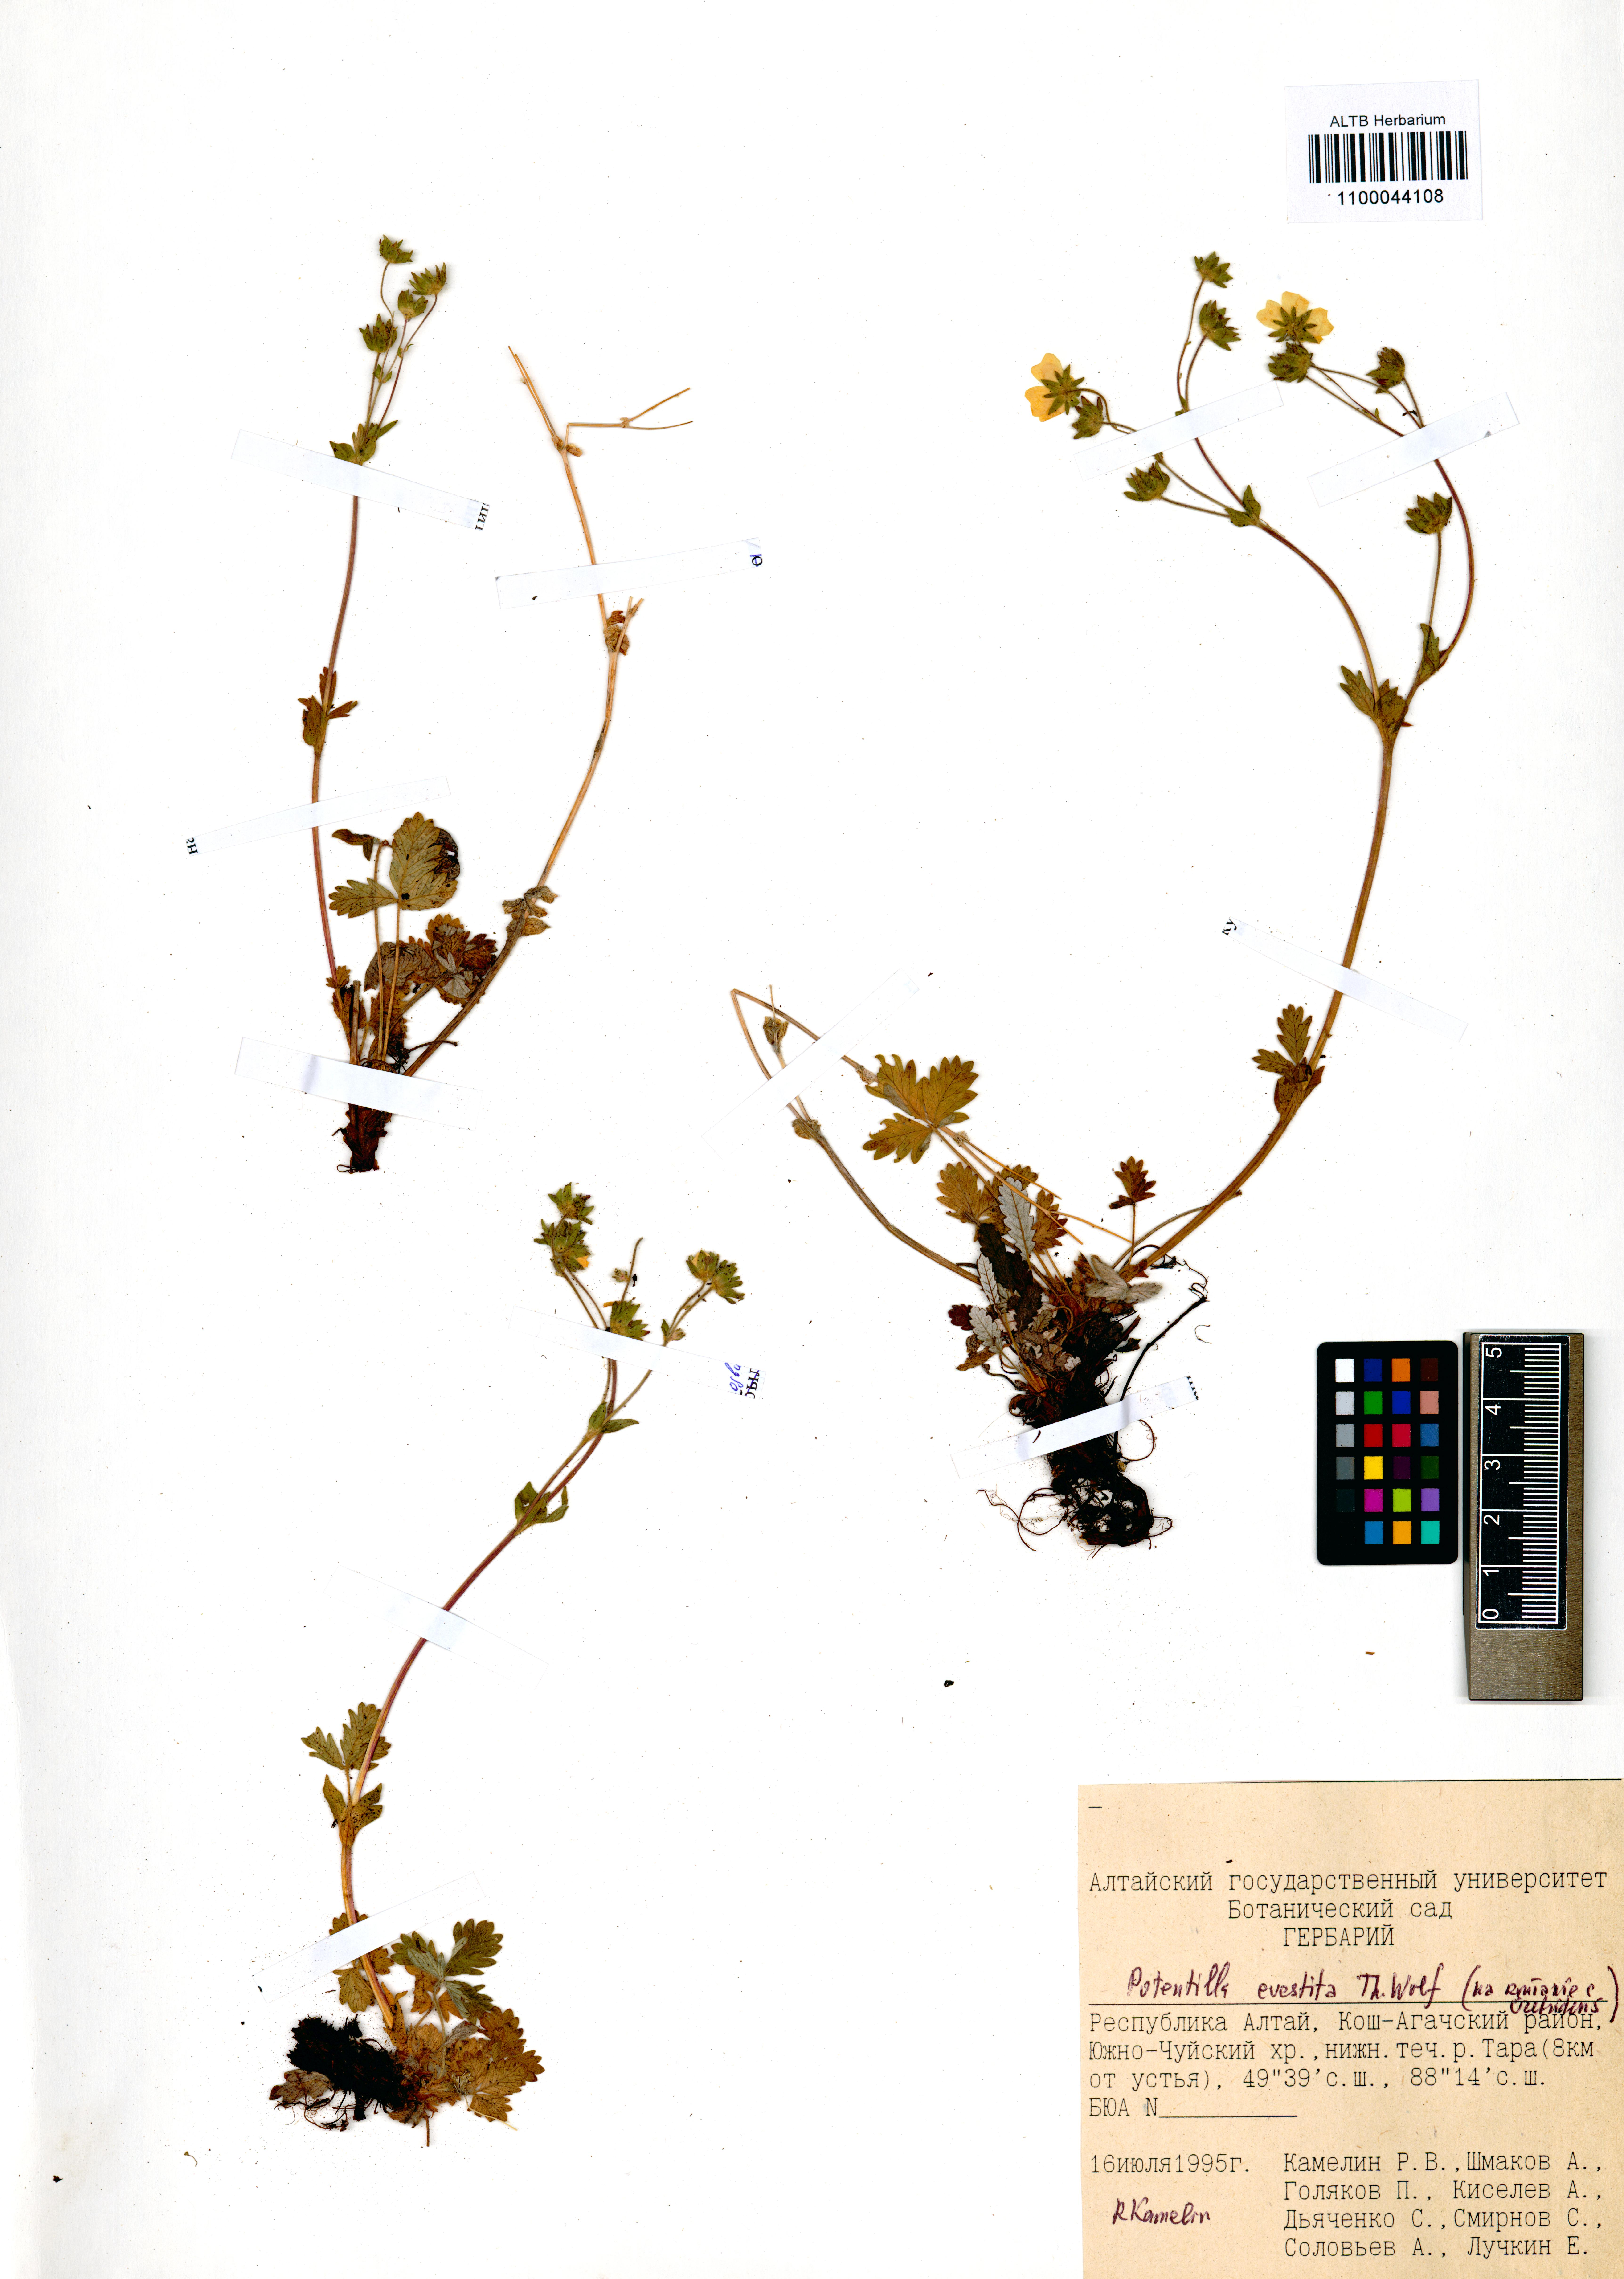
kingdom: Plantae
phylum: Tracheophyta
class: Magnoliopsida
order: Rosales
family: Rosaceae
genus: Potentilla
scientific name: Potentilla evestita
